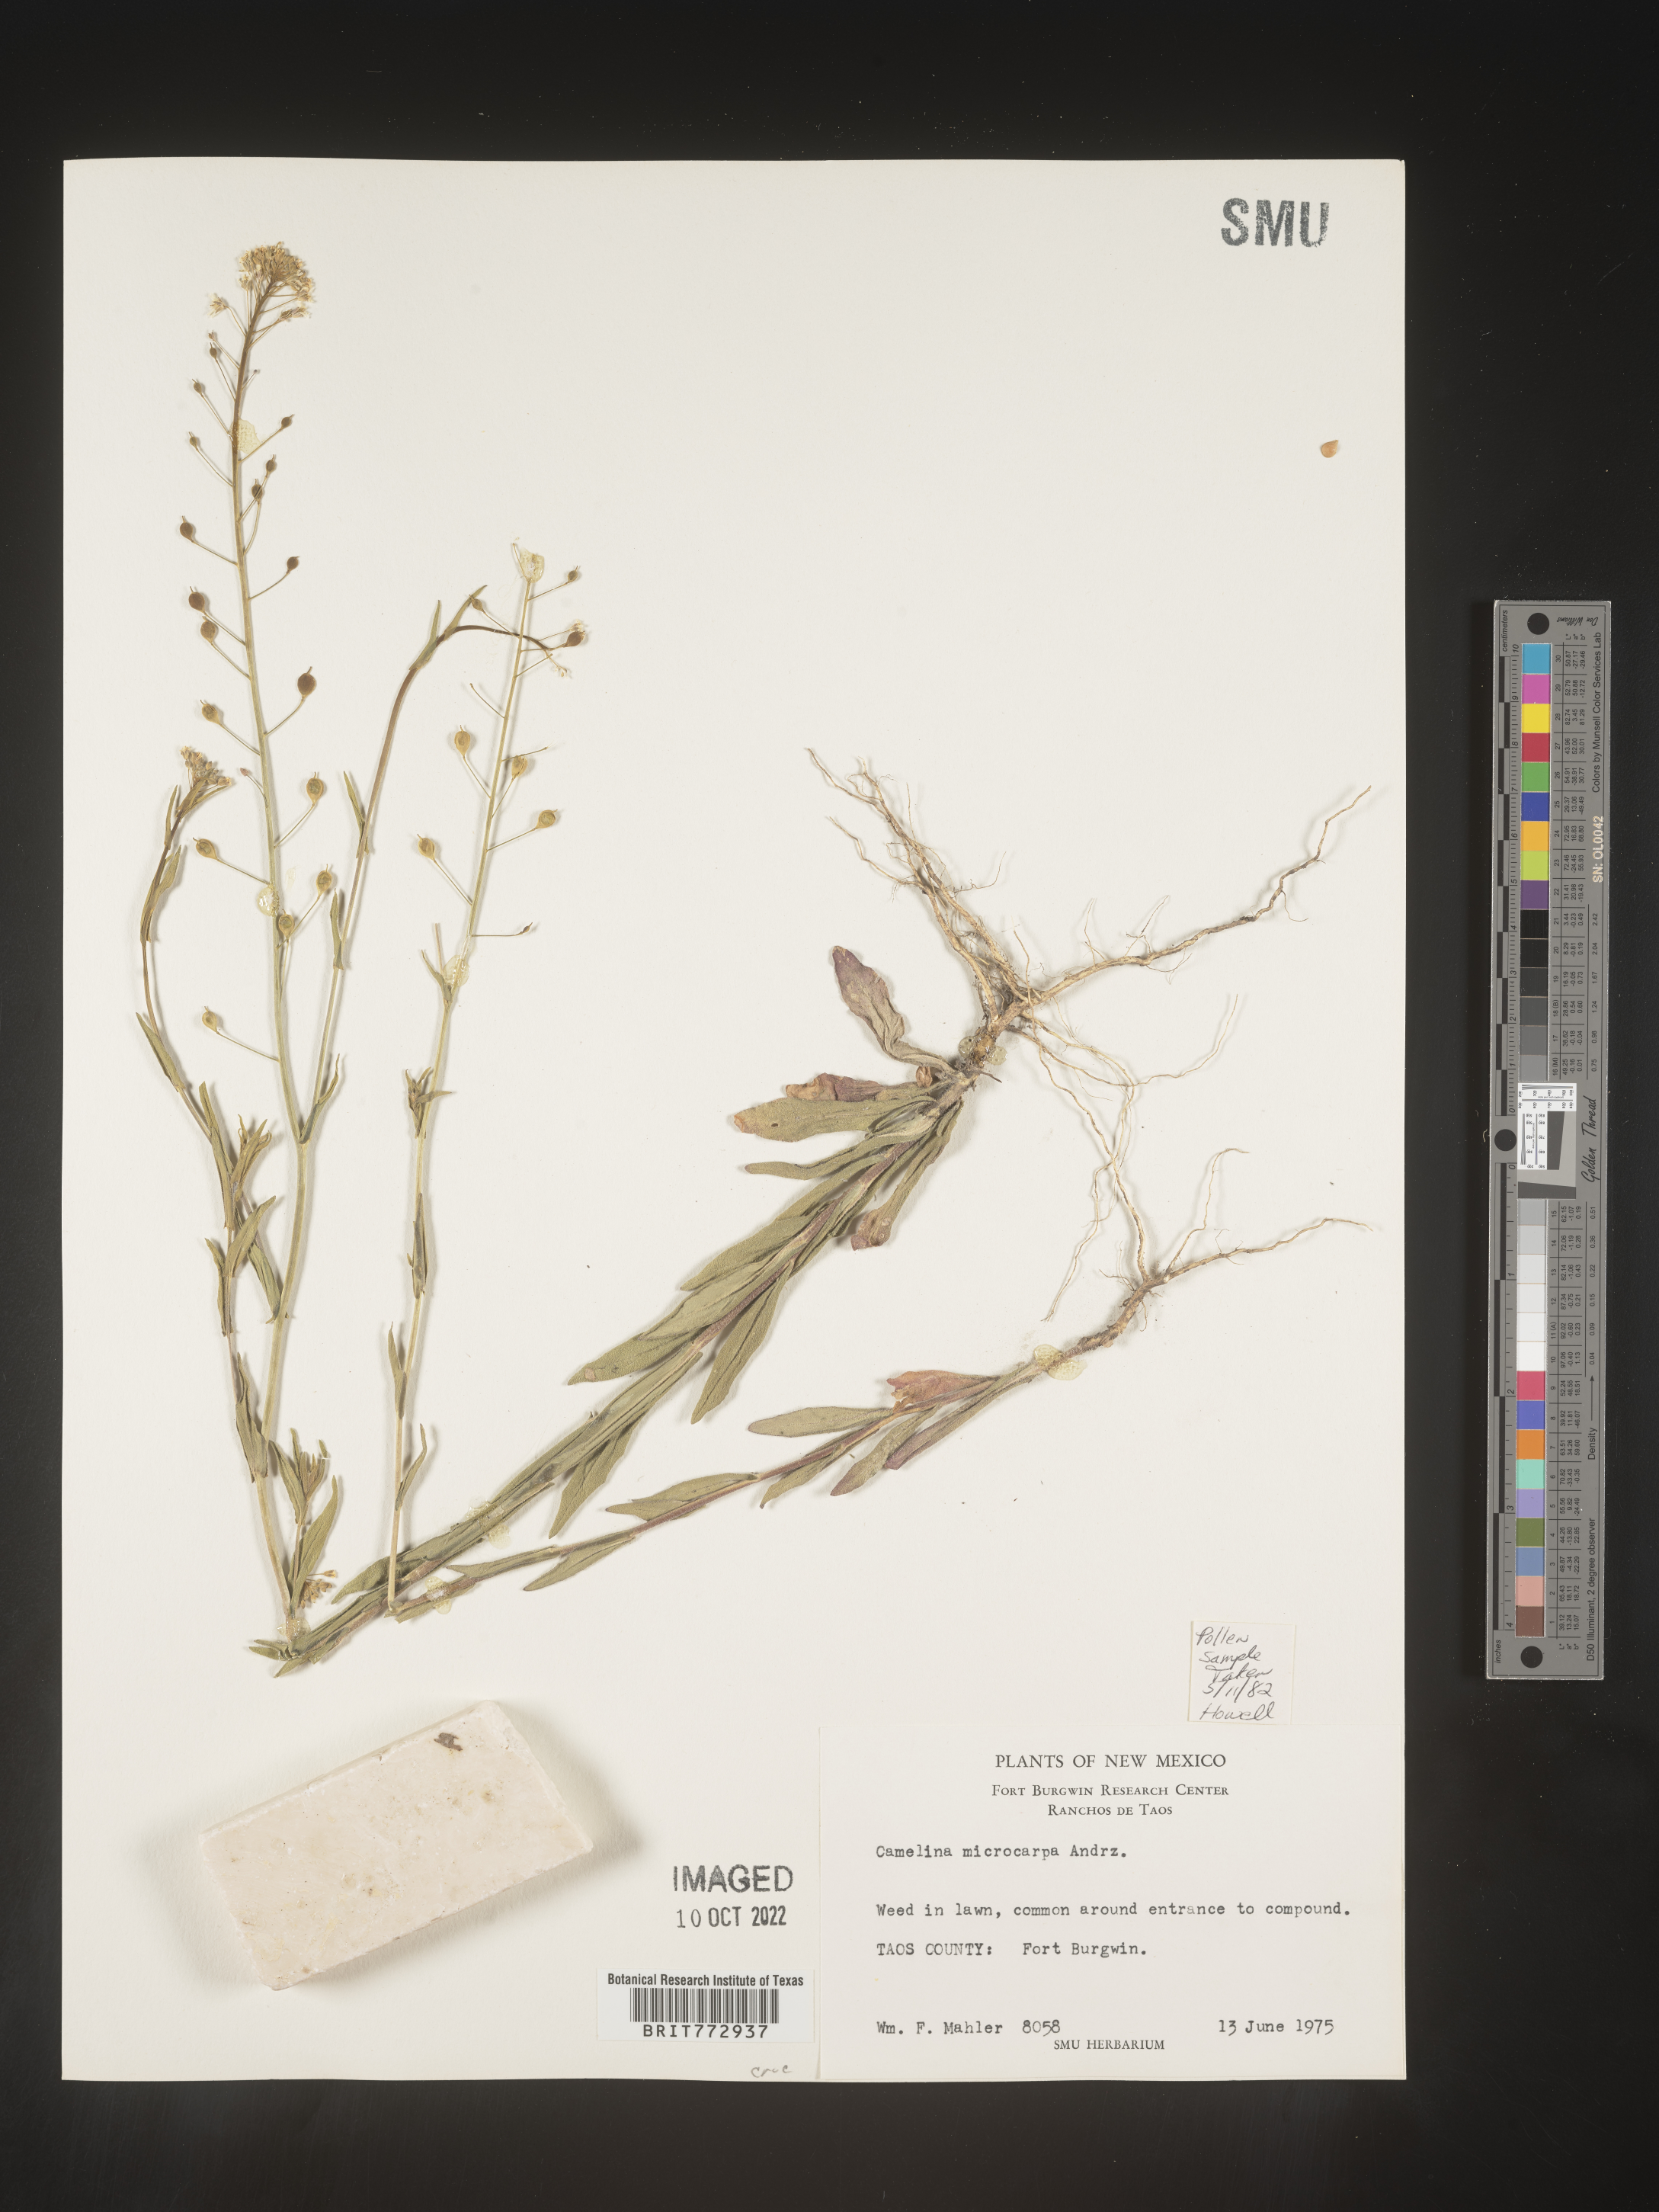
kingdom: Plantae
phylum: Tracheophyta
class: Magnoliopsida
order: Brassicales
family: Brassicaceae
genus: Camelina
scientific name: Camelina microcarpa
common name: Lesser gold-of-pleasure
